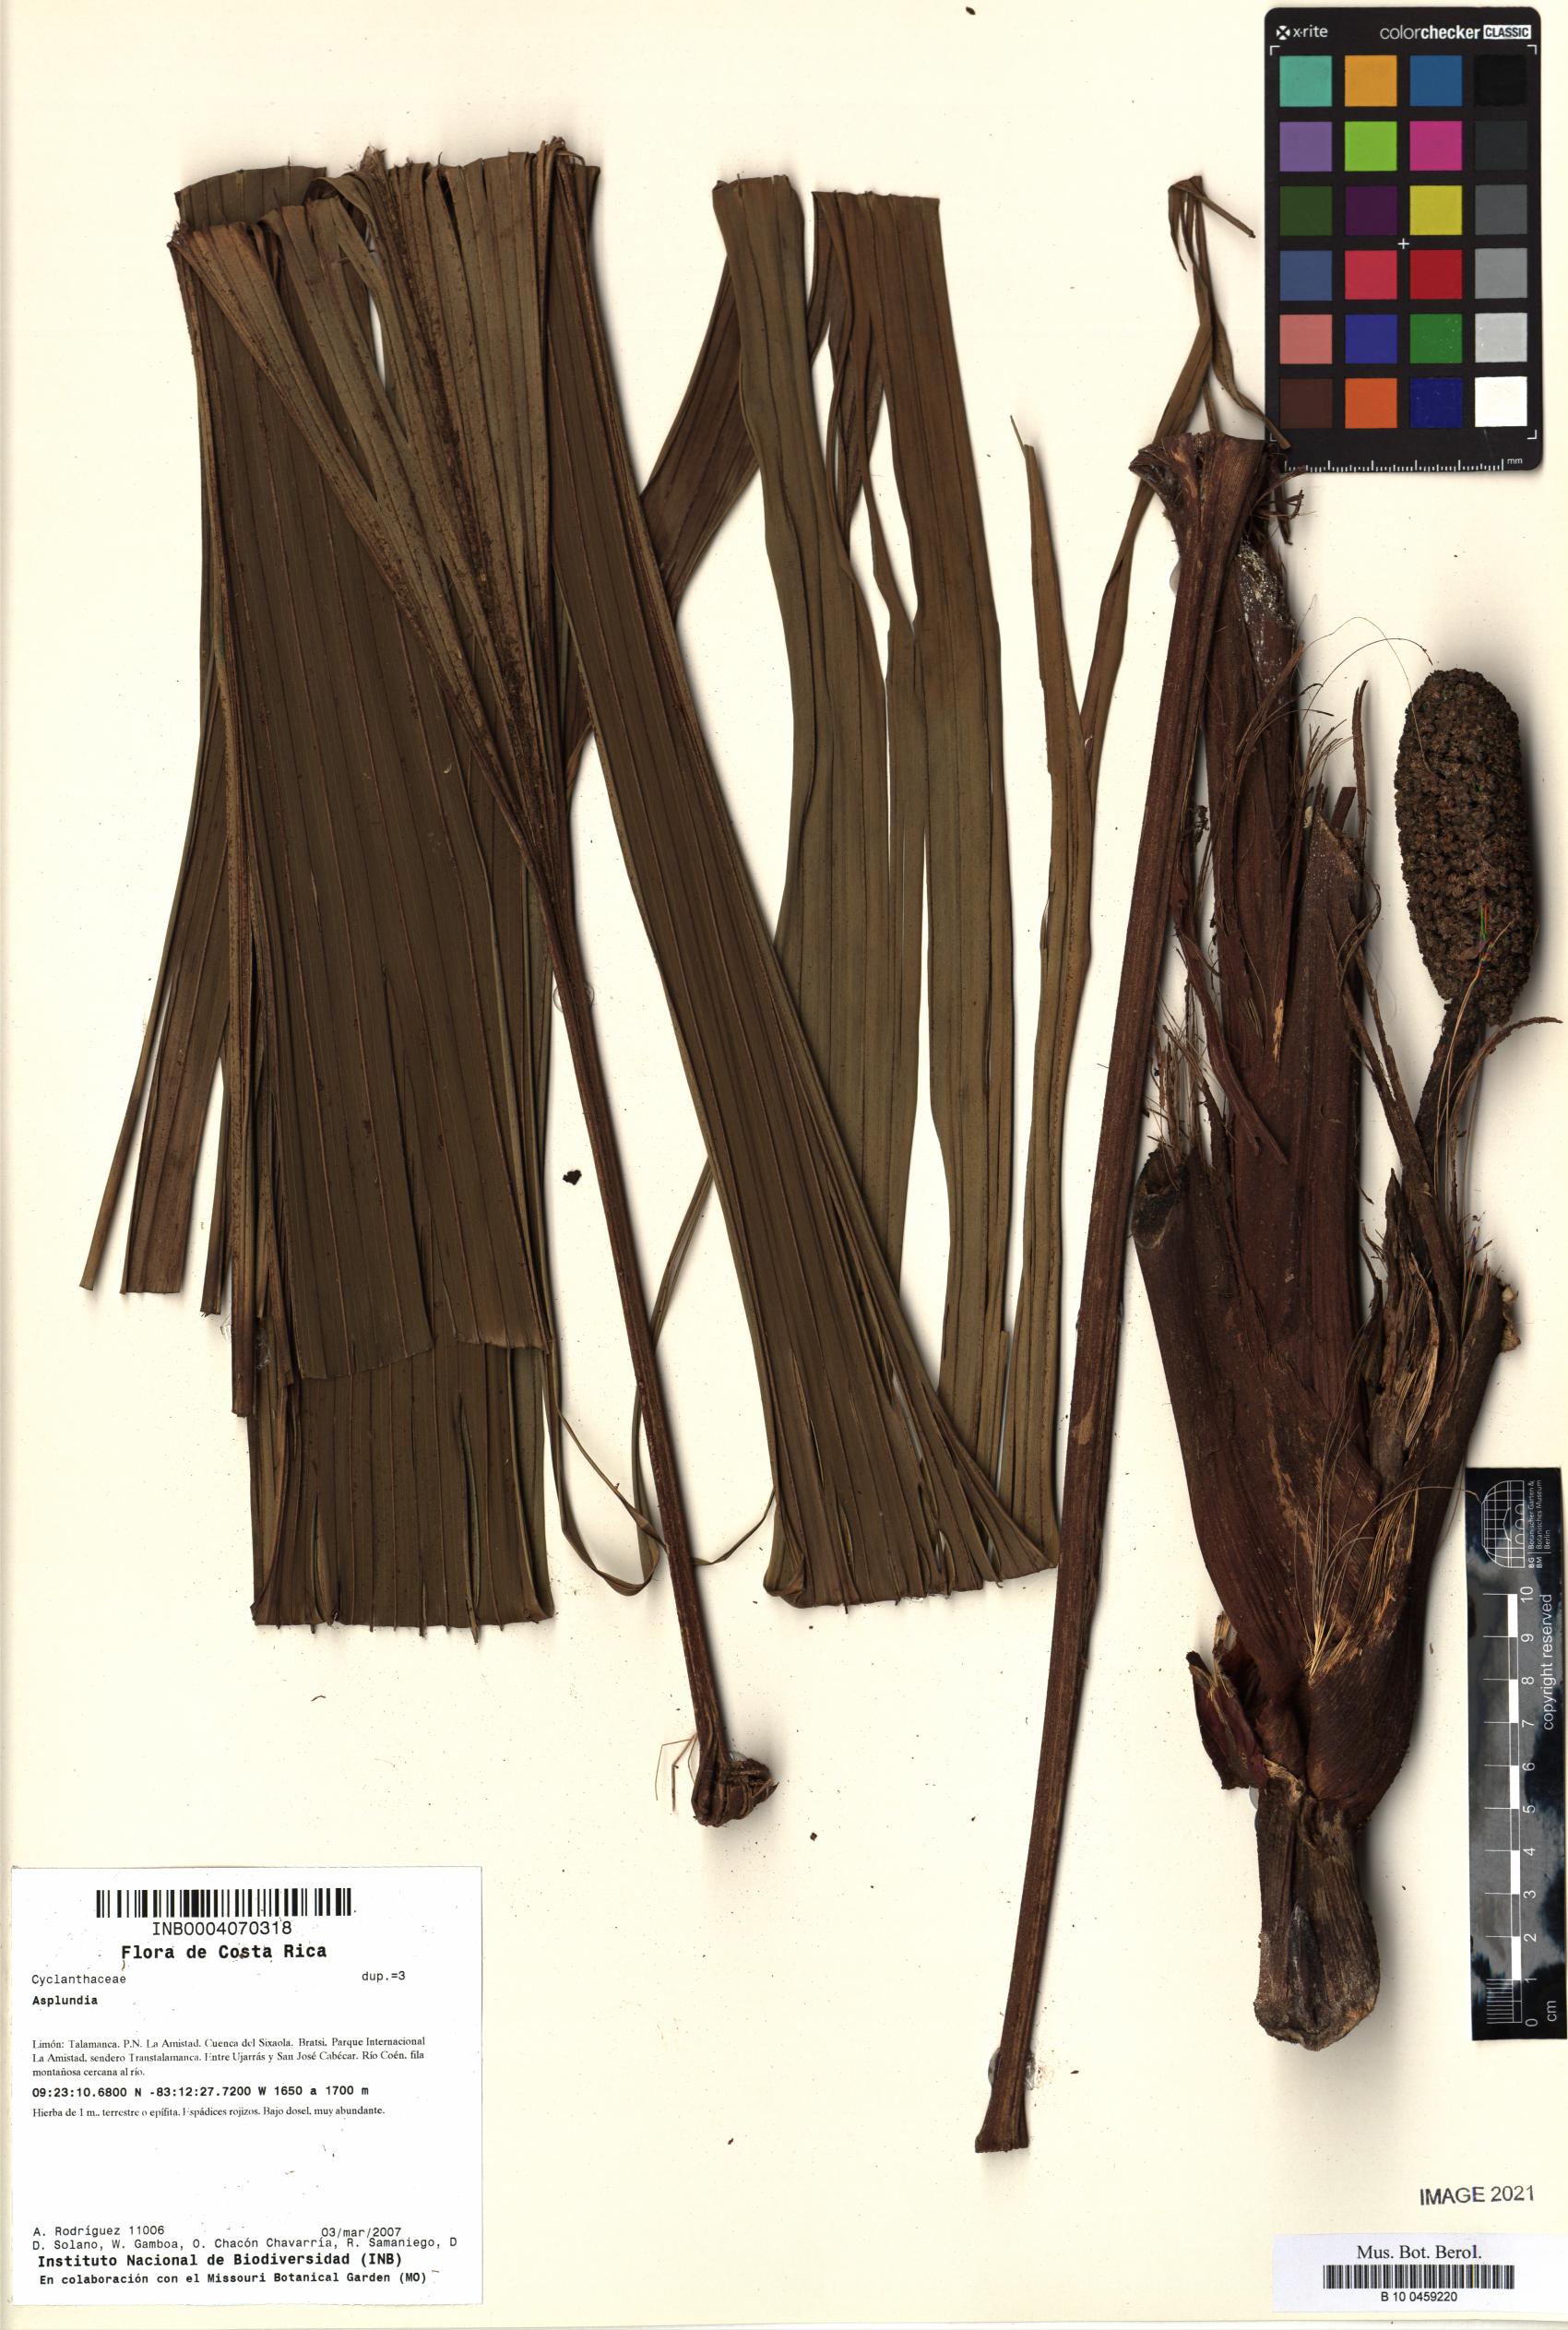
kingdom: Plantae
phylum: Tracheophyta
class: Liliopsida
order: Pandanales
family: Cyclanthaceae
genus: Asplundia
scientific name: Asplundia
